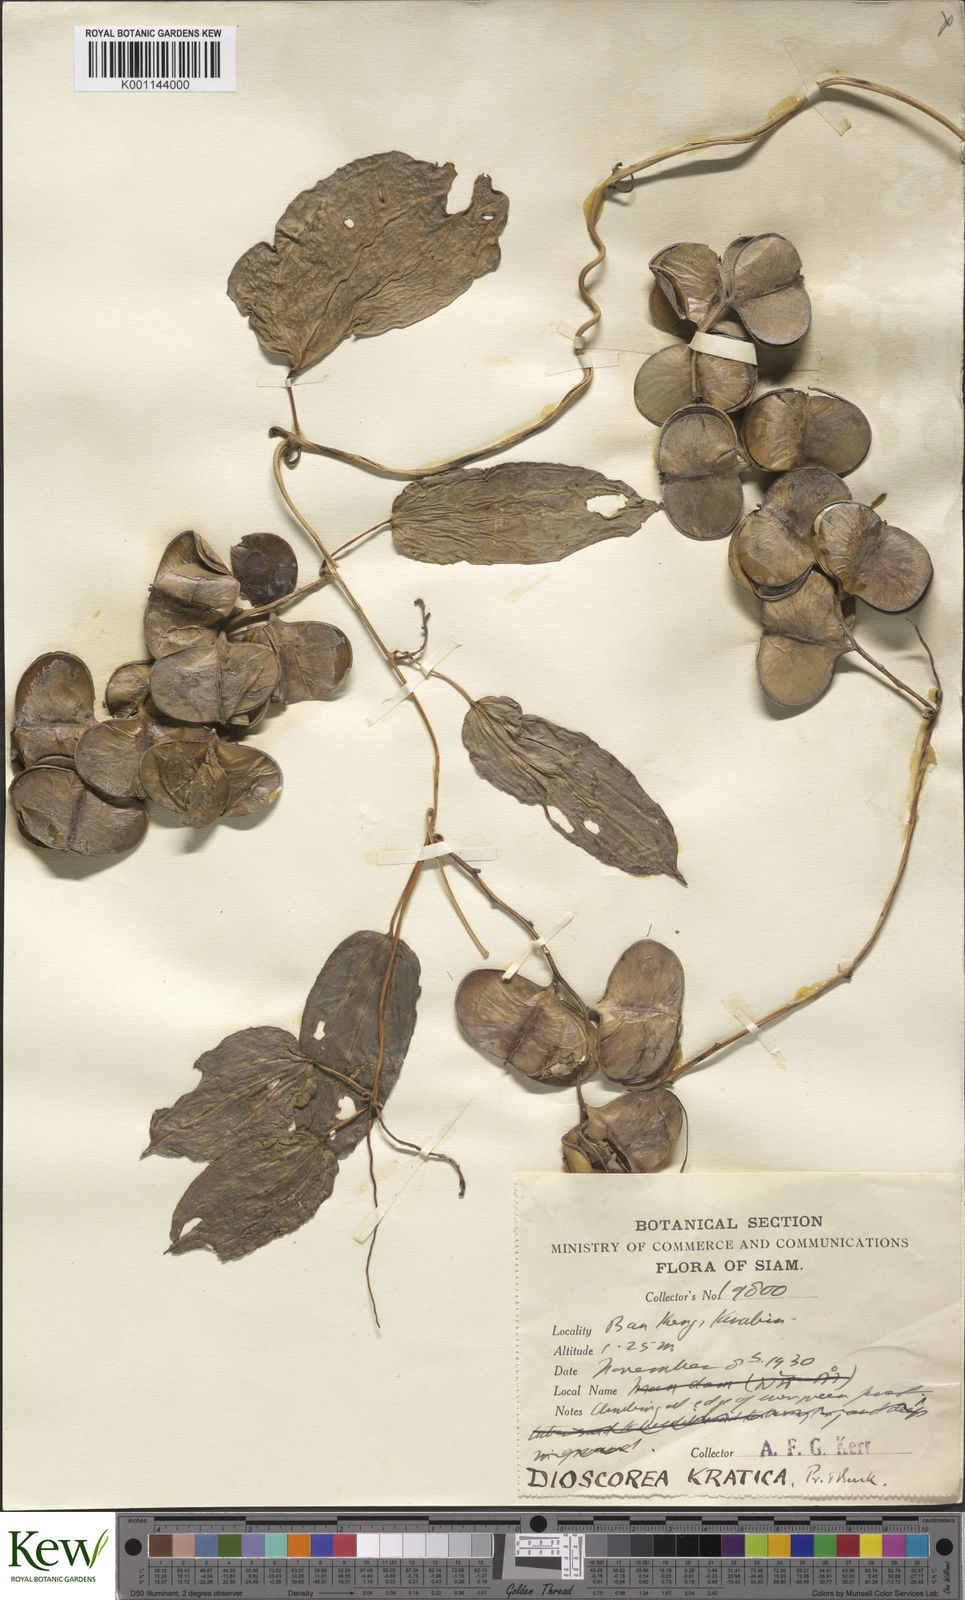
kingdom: Plantae
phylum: Tracheophyta
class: Liliopsida
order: Dioscoreales
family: Dioscoreaceae
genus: Dioscorea
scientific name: Dioscorea kratica
